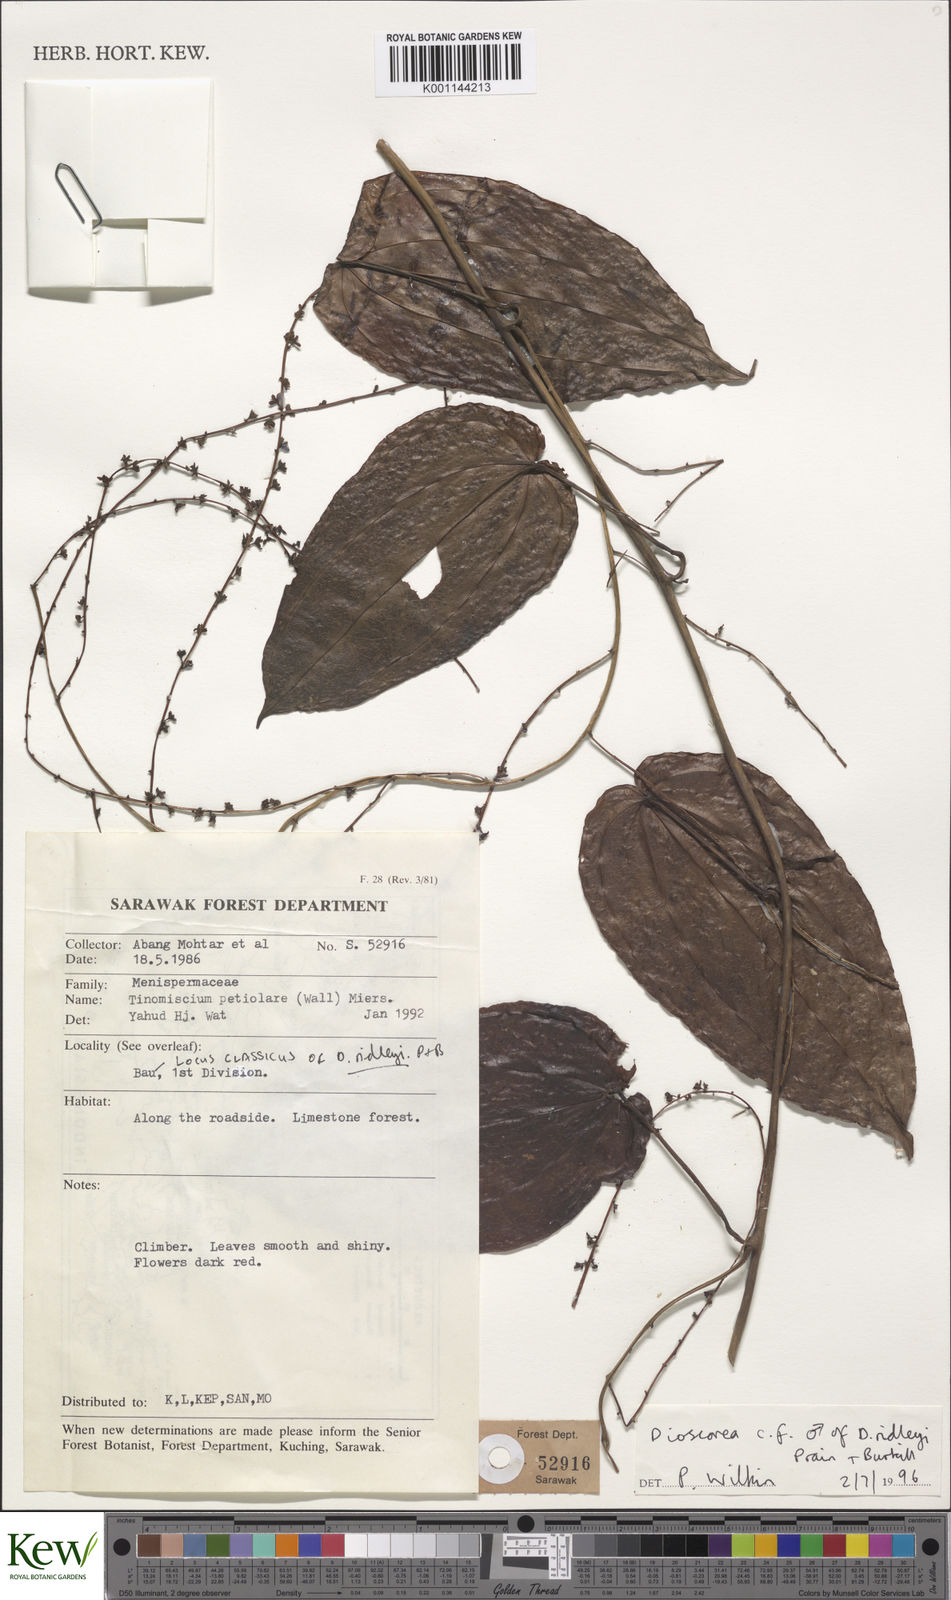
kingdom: Plantae
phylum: Tracheophyta
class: Liliopsida
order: Dioscoreales
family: Dioscoreaceae
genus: Dioscorea
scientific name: Dioscorea ridleyi
